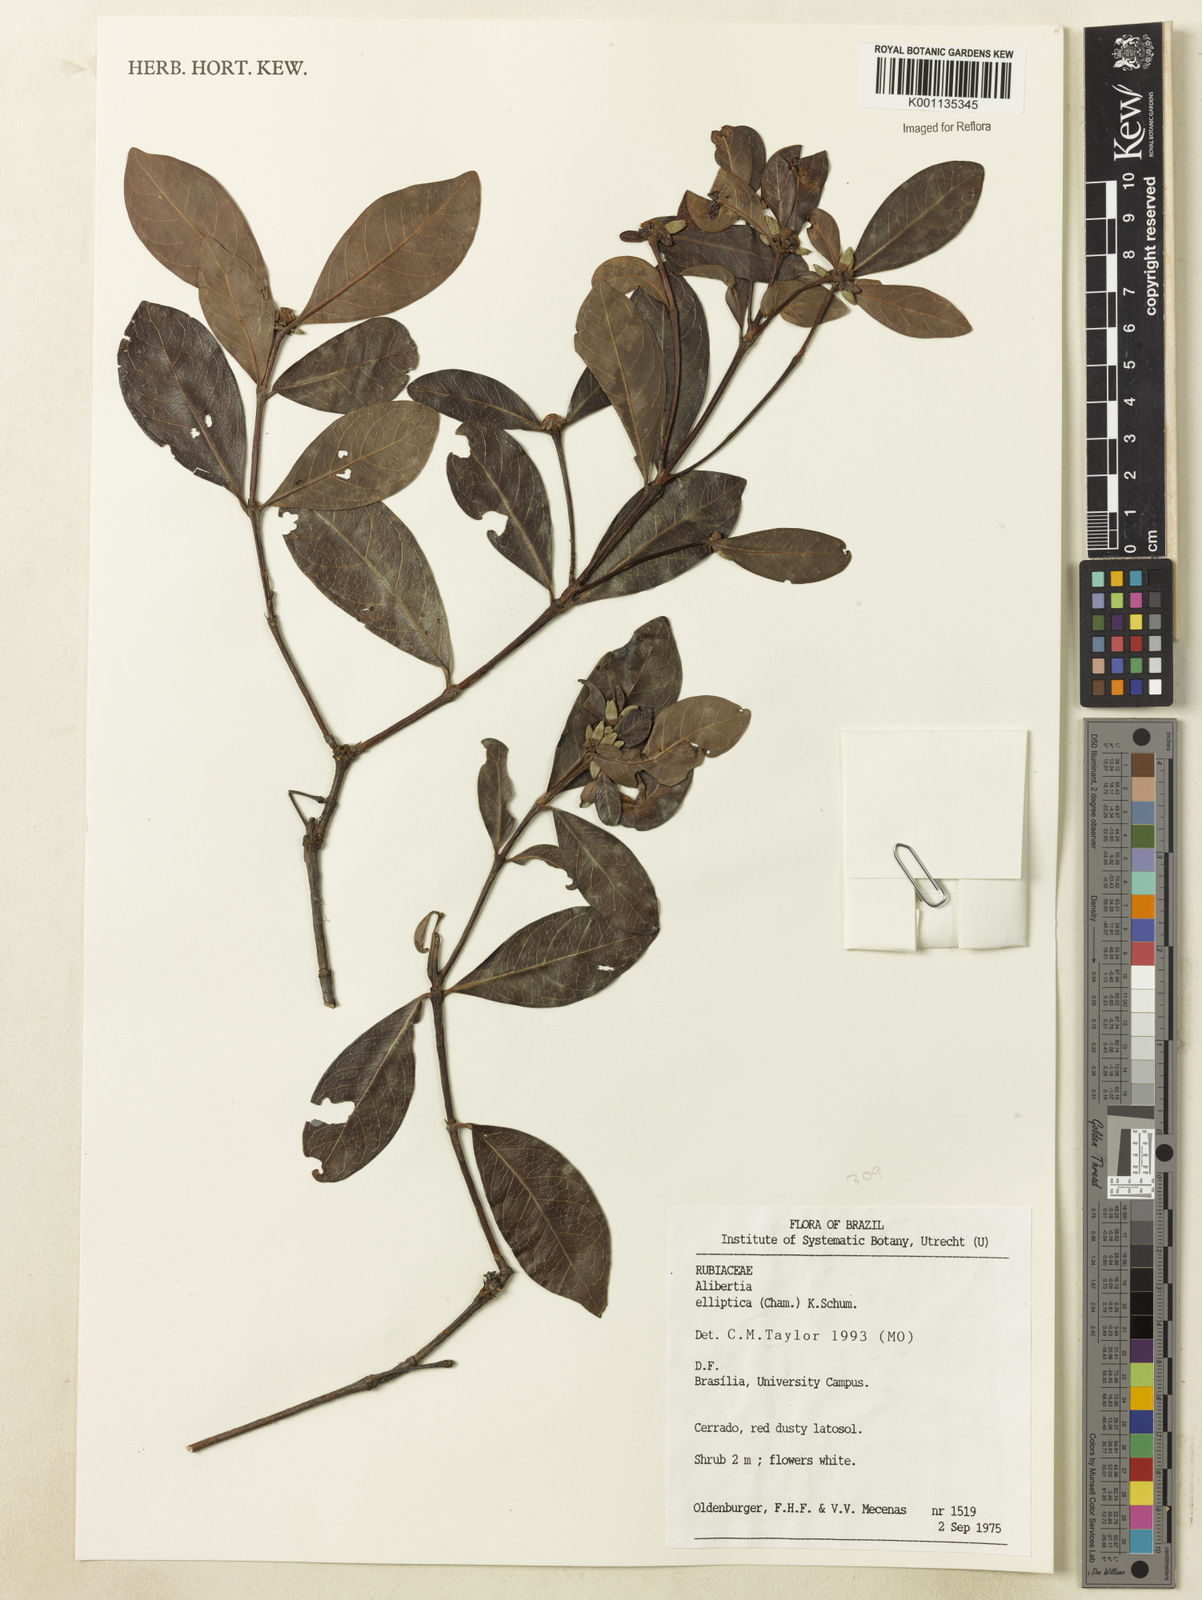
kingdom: Plantae
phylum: Tracheophyta
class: Magnoliopsida
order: Gentianales
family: Rubiaceae
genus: Cordiera
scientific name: Cordiera elliptica
